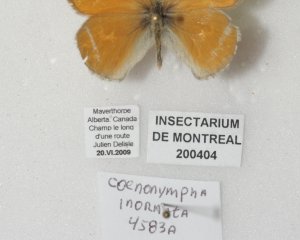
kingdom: Animalia
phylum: Arthropoda
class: Insecta
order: Lepidoptera
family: Nymphalidae
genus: Coenonympha
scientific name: Coenonympha tullia
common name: Large Heath
